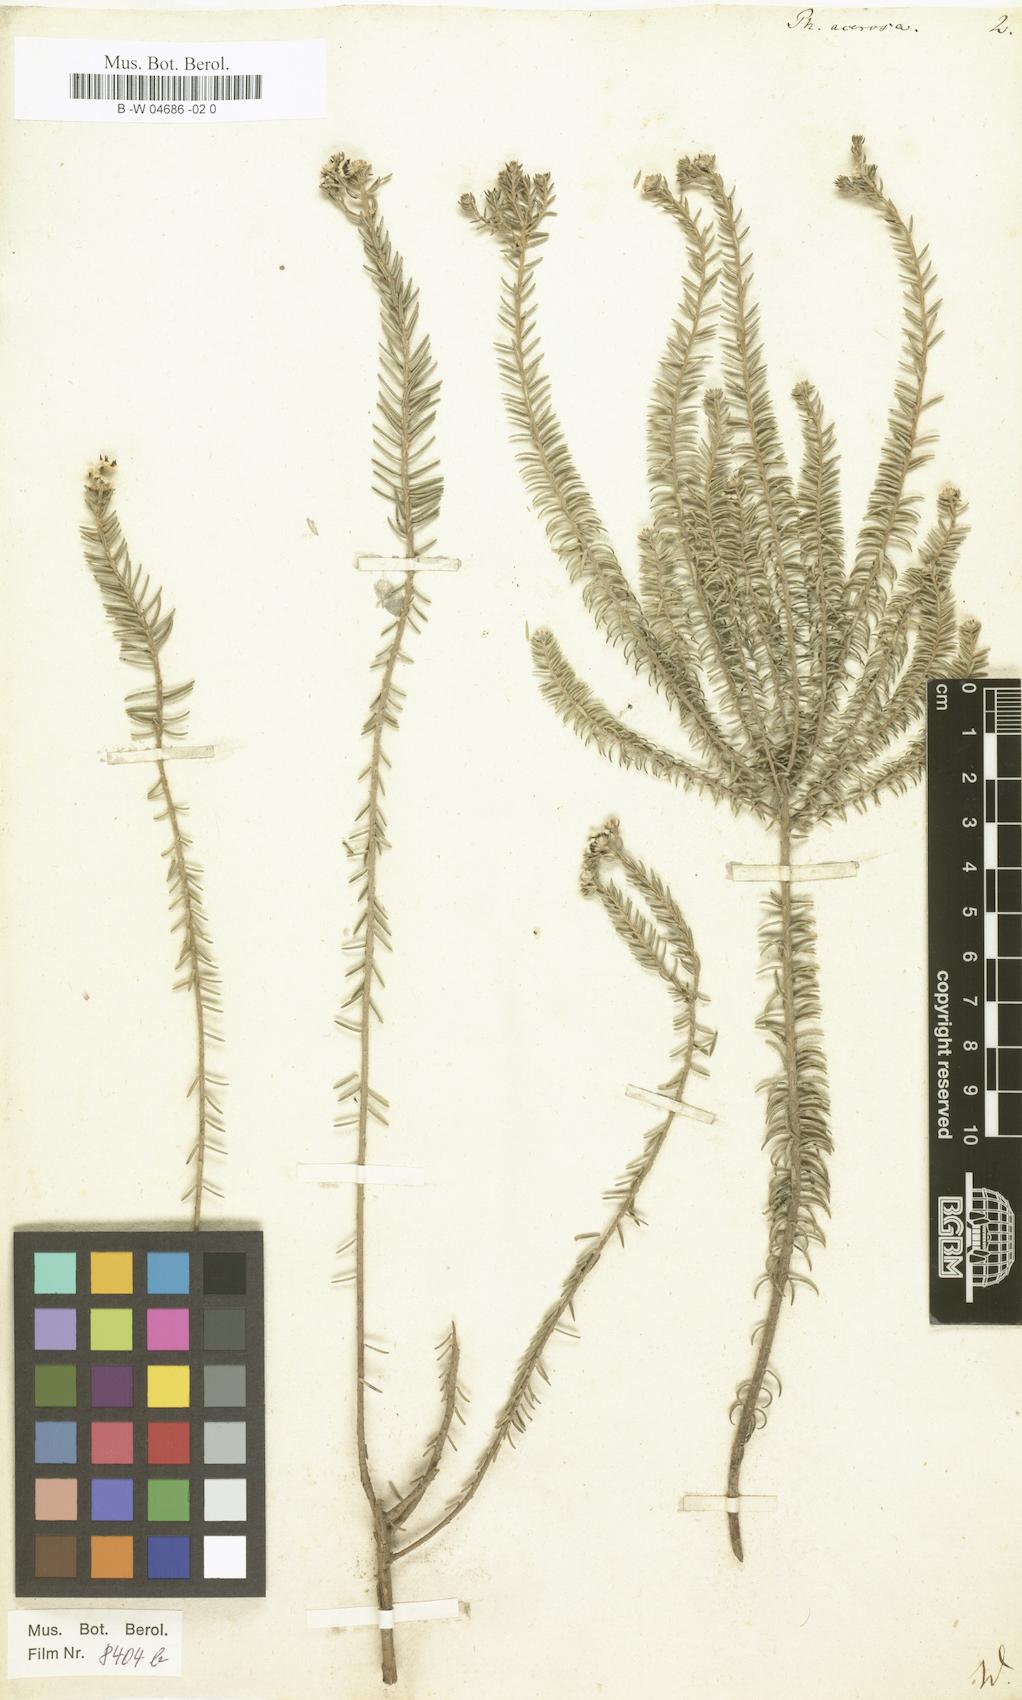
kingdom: Plantae
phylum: Tracheophyta
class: Magnoliopsida
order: Rosales
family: Rhamnaceae
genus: Phylica
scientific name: Phylica
